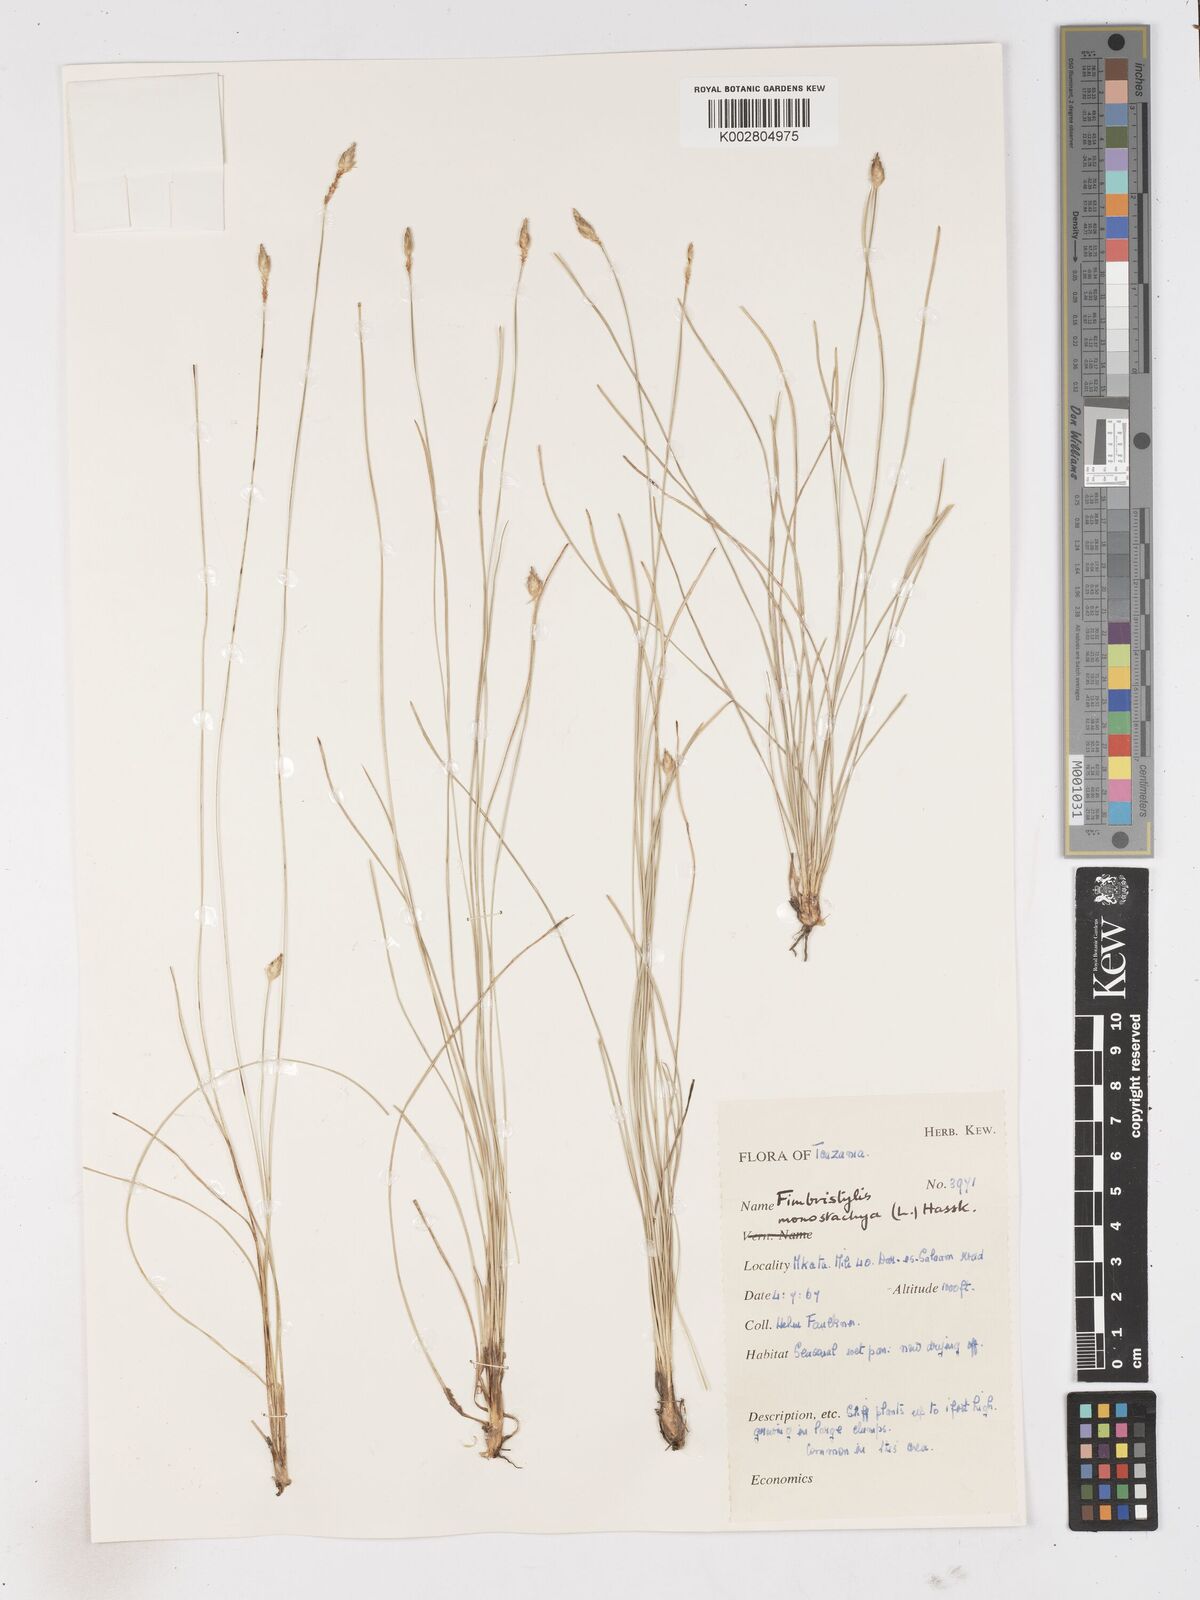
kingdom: Plantae
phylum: Tracheophyta
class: Liliopsida
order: Poales
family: Cyperaceae
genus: Abildgaardia
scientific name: Abildgaardia ovata
